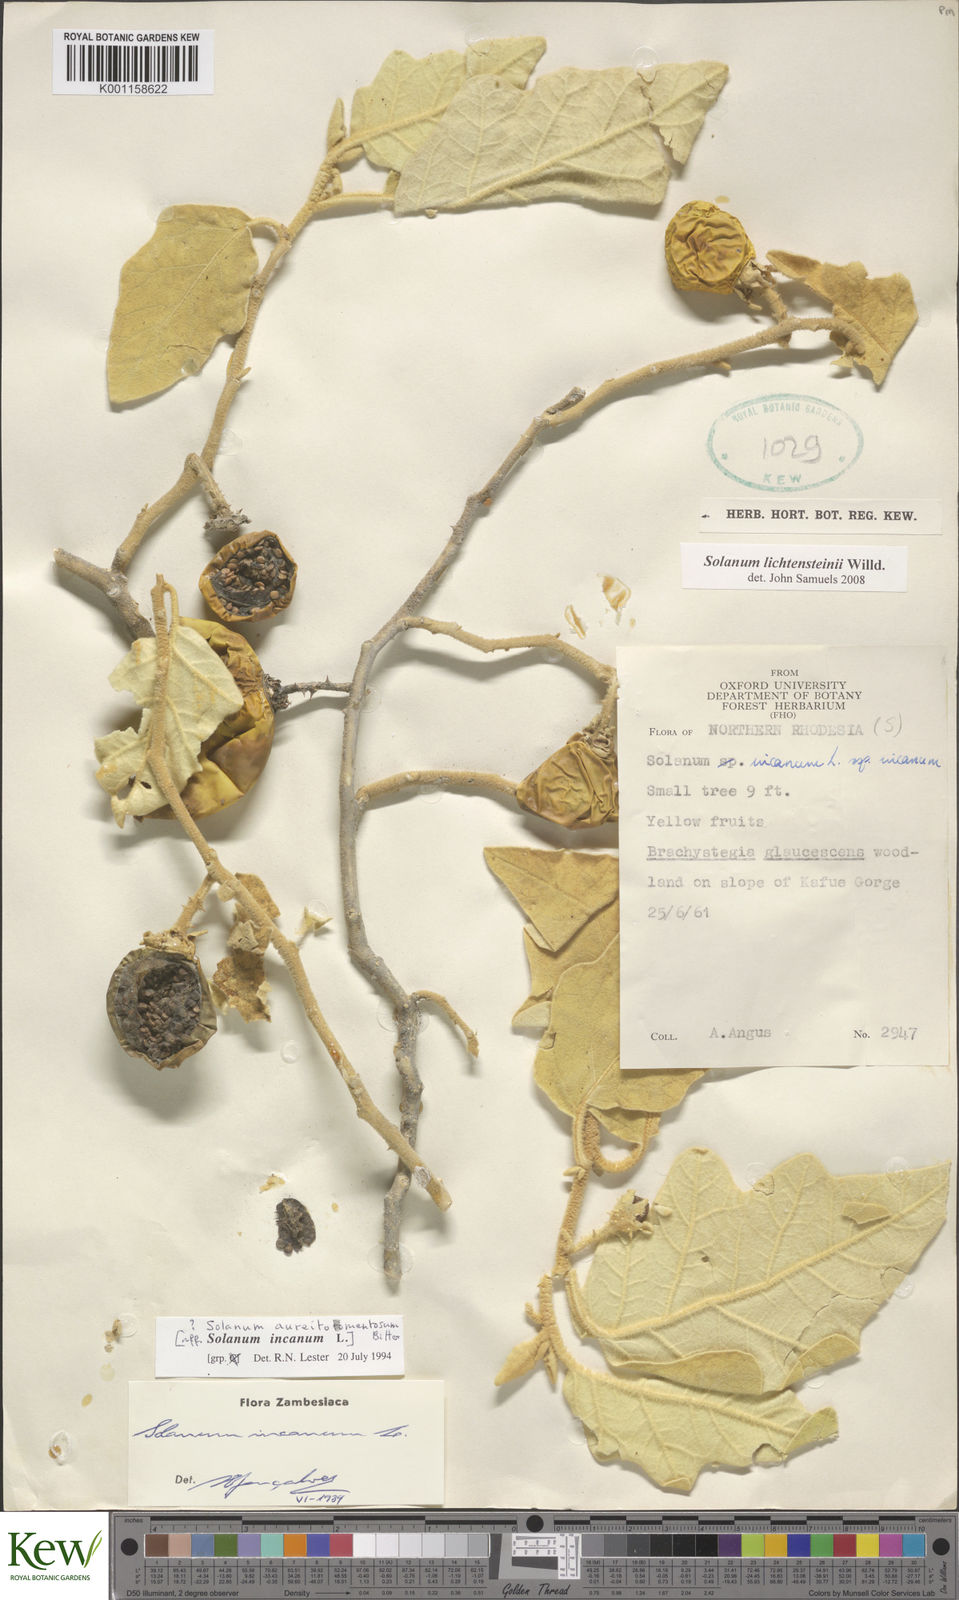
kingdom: Plantae
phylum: Tracheophyta
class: Magnoliopsida
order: Solanales
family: Solanaceae
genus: Solanum
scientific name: Solanum lichtensteinii
